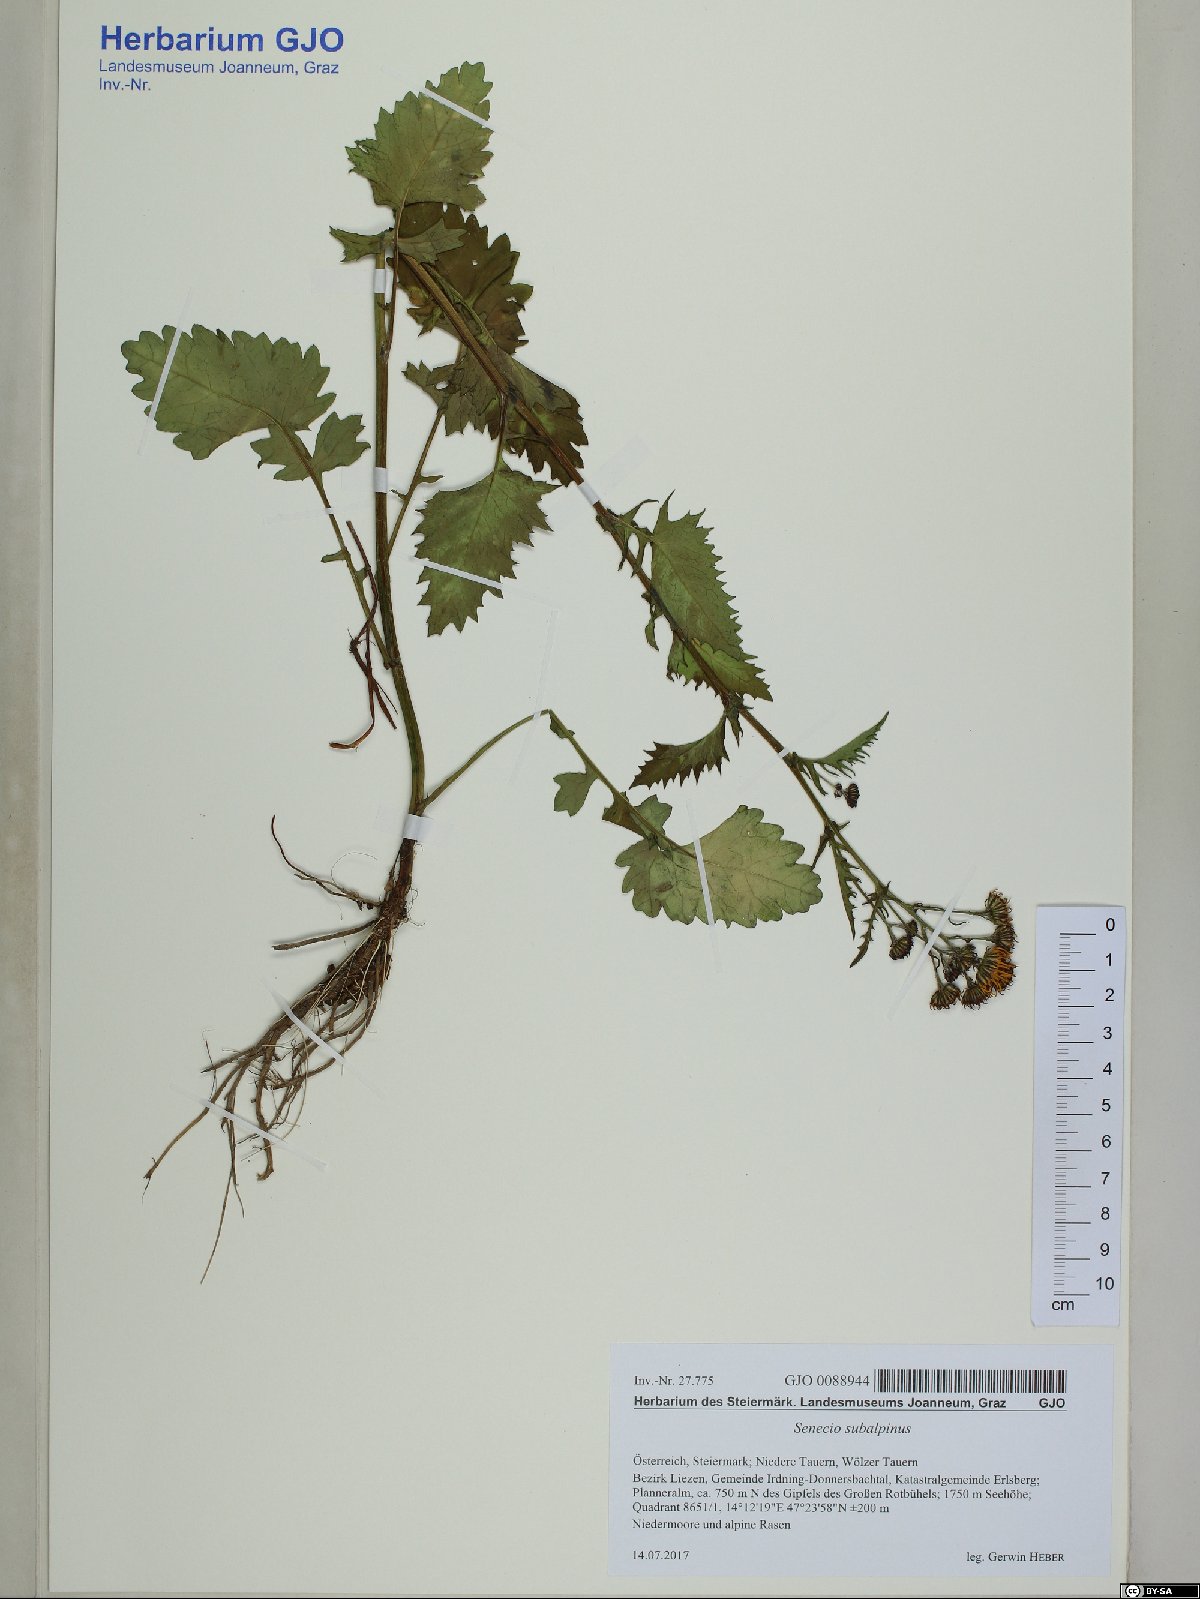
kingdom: Plantae
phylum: Tracheophyta
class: Magnoliopsida
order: Asterales
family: Asteraceae
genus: Jacobaea
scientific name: Jacobaea subalpina
